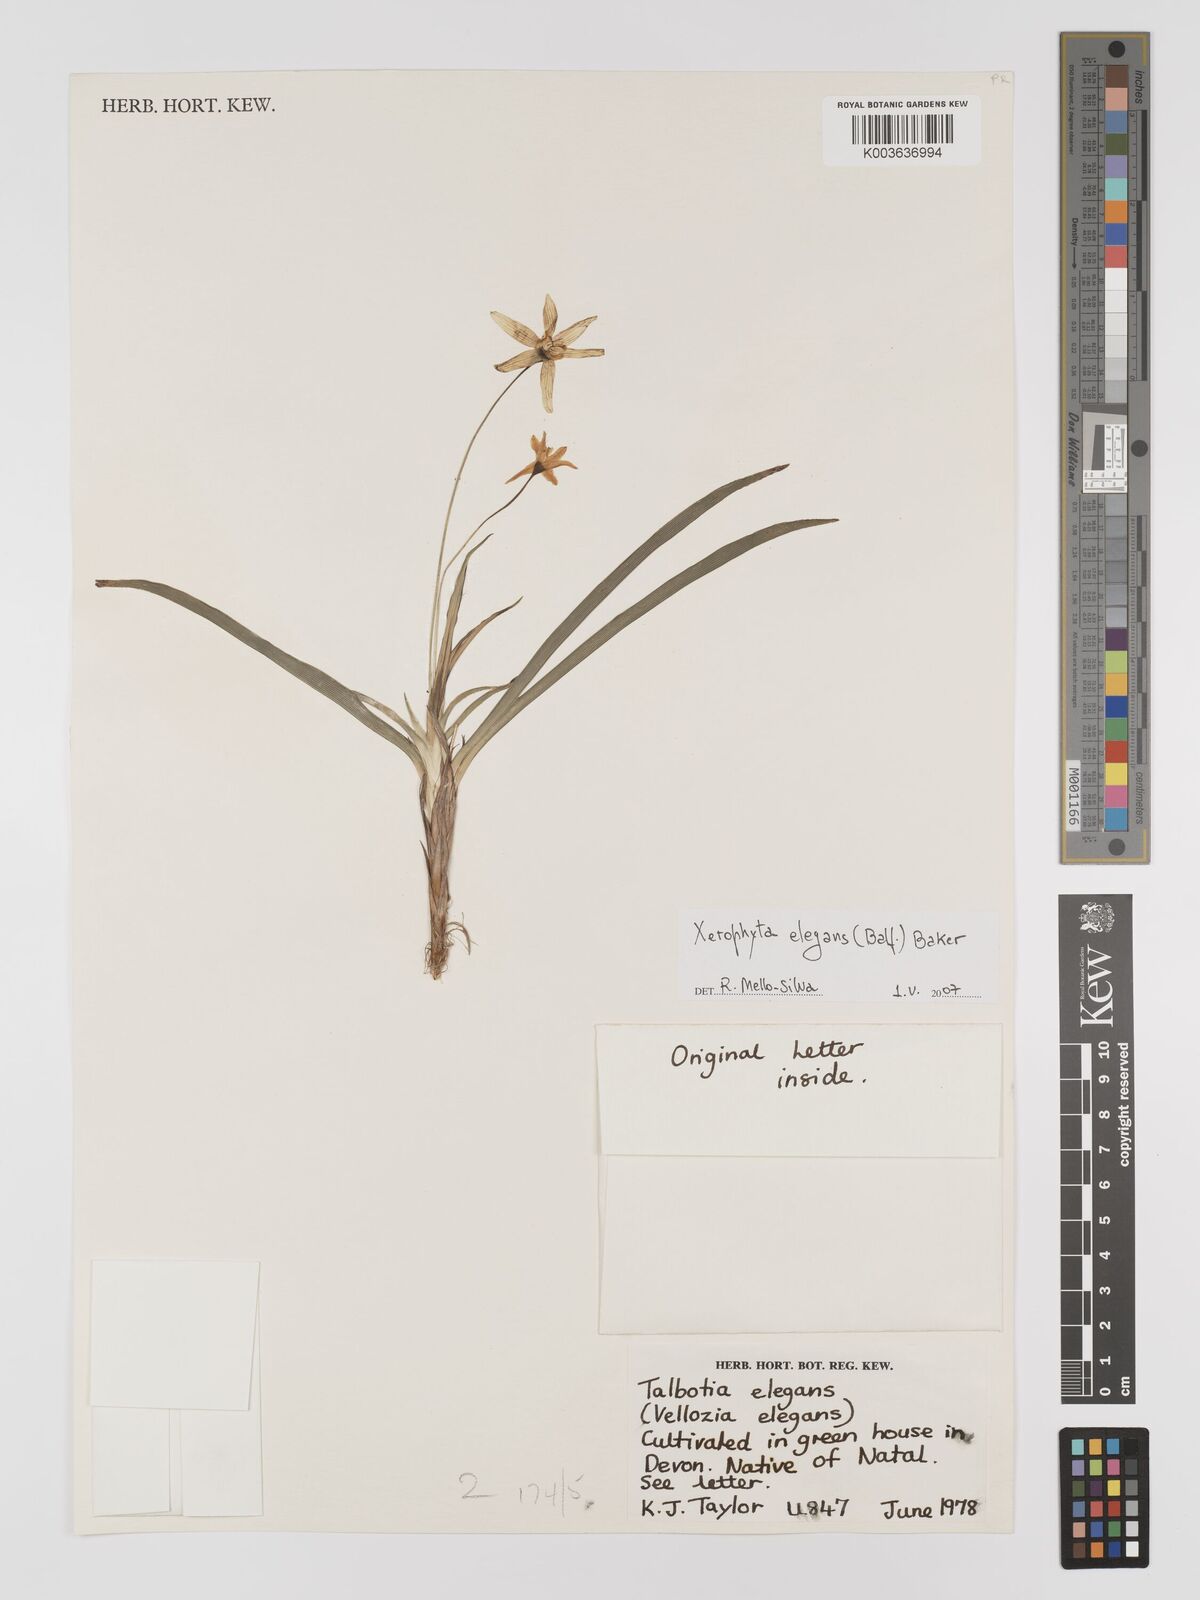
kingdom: Plantae
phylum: Tracheophyta
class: Liliopsida
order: Pandanales
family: Velloziaceae
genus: Xerophyta
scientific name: Xerophyta elegans
